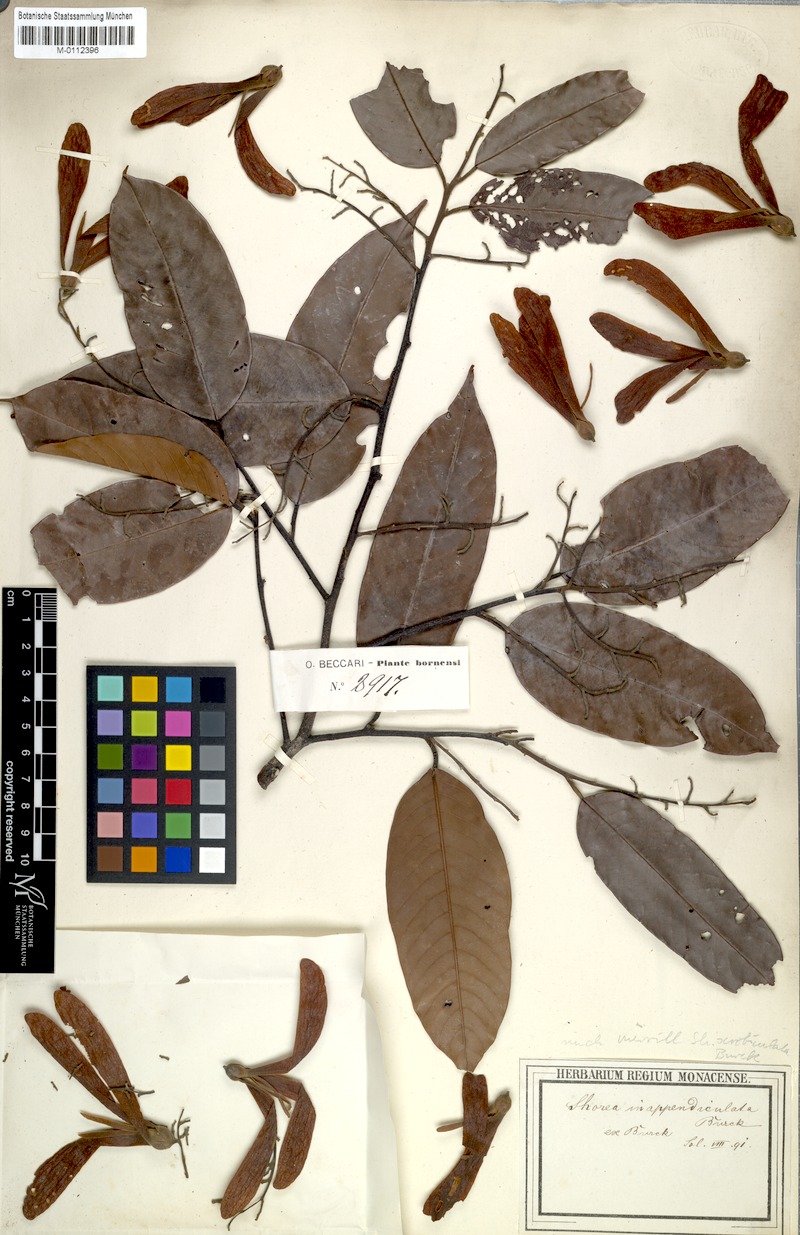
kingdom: Plantae
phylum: Tracheophyta
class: Magnoliopsida
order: Malvales
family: Dipterocarpaceae
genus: Shorea
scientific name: Shorea scrobiculata
